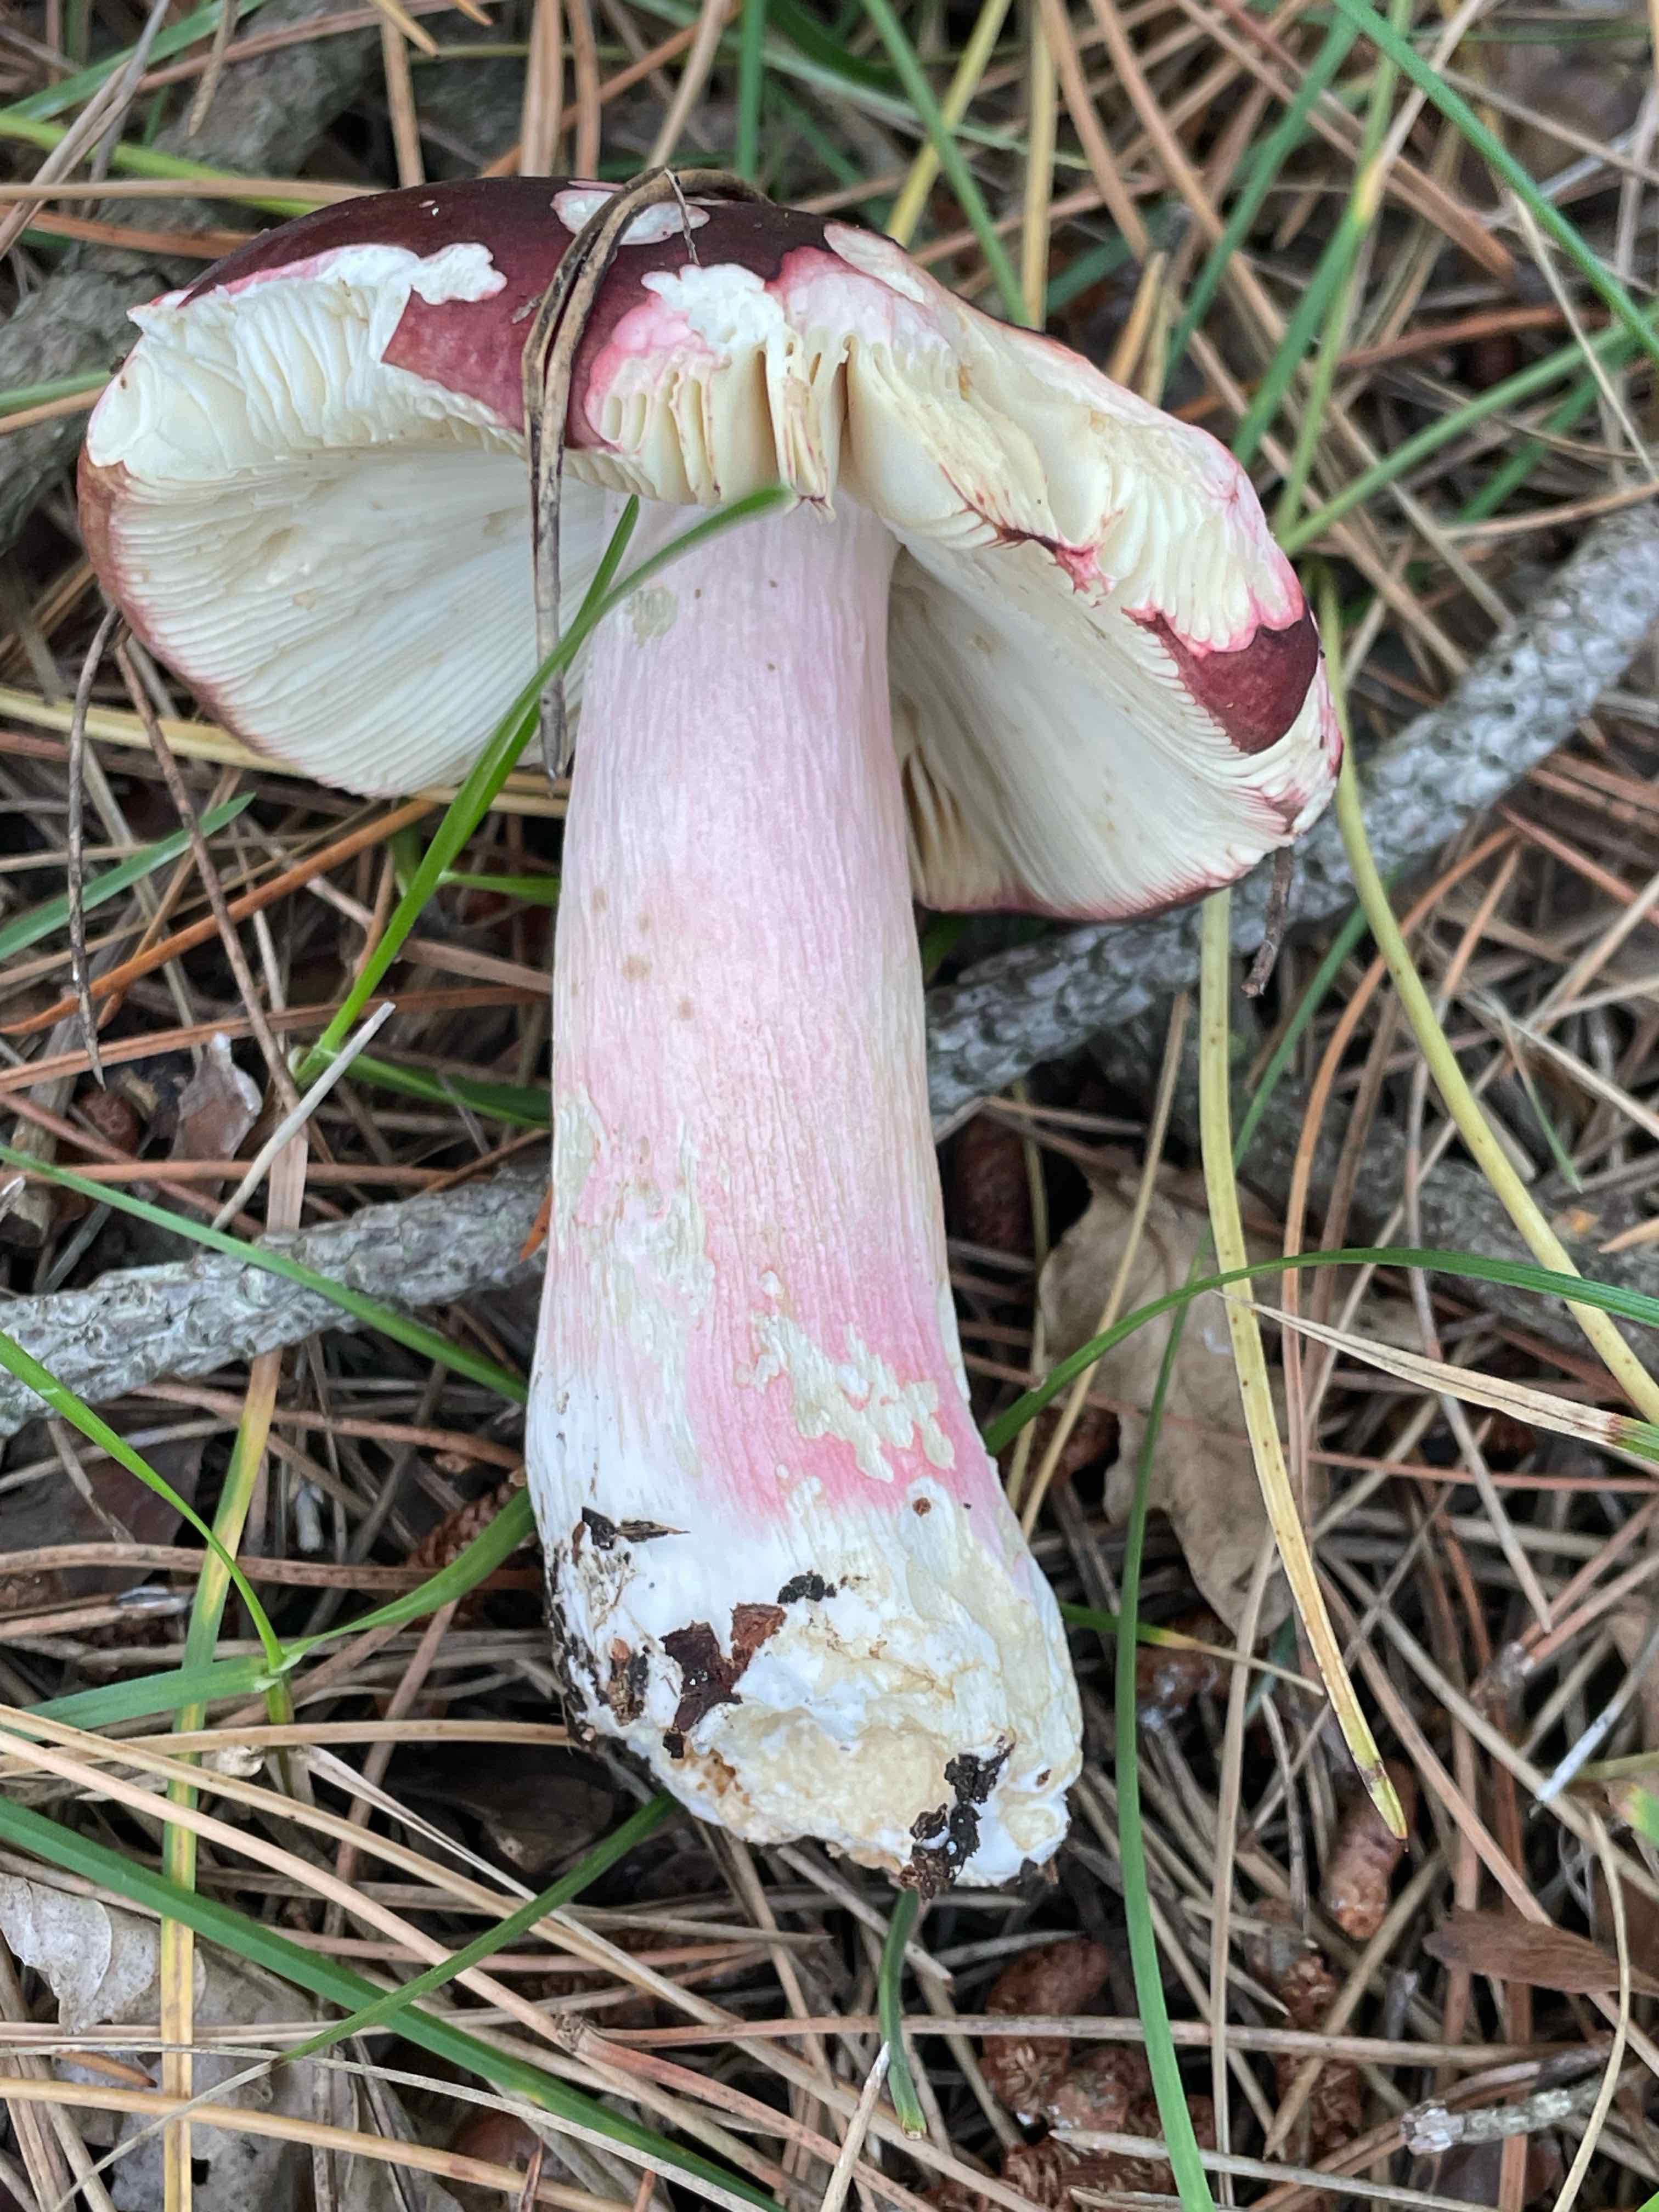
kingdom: Fungi
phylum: Basidiomycota
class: Agaricomycetes
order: Russulales
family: Russulaceae
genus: Russula
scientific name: Russula xerampelina
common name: hummer-skørhat
